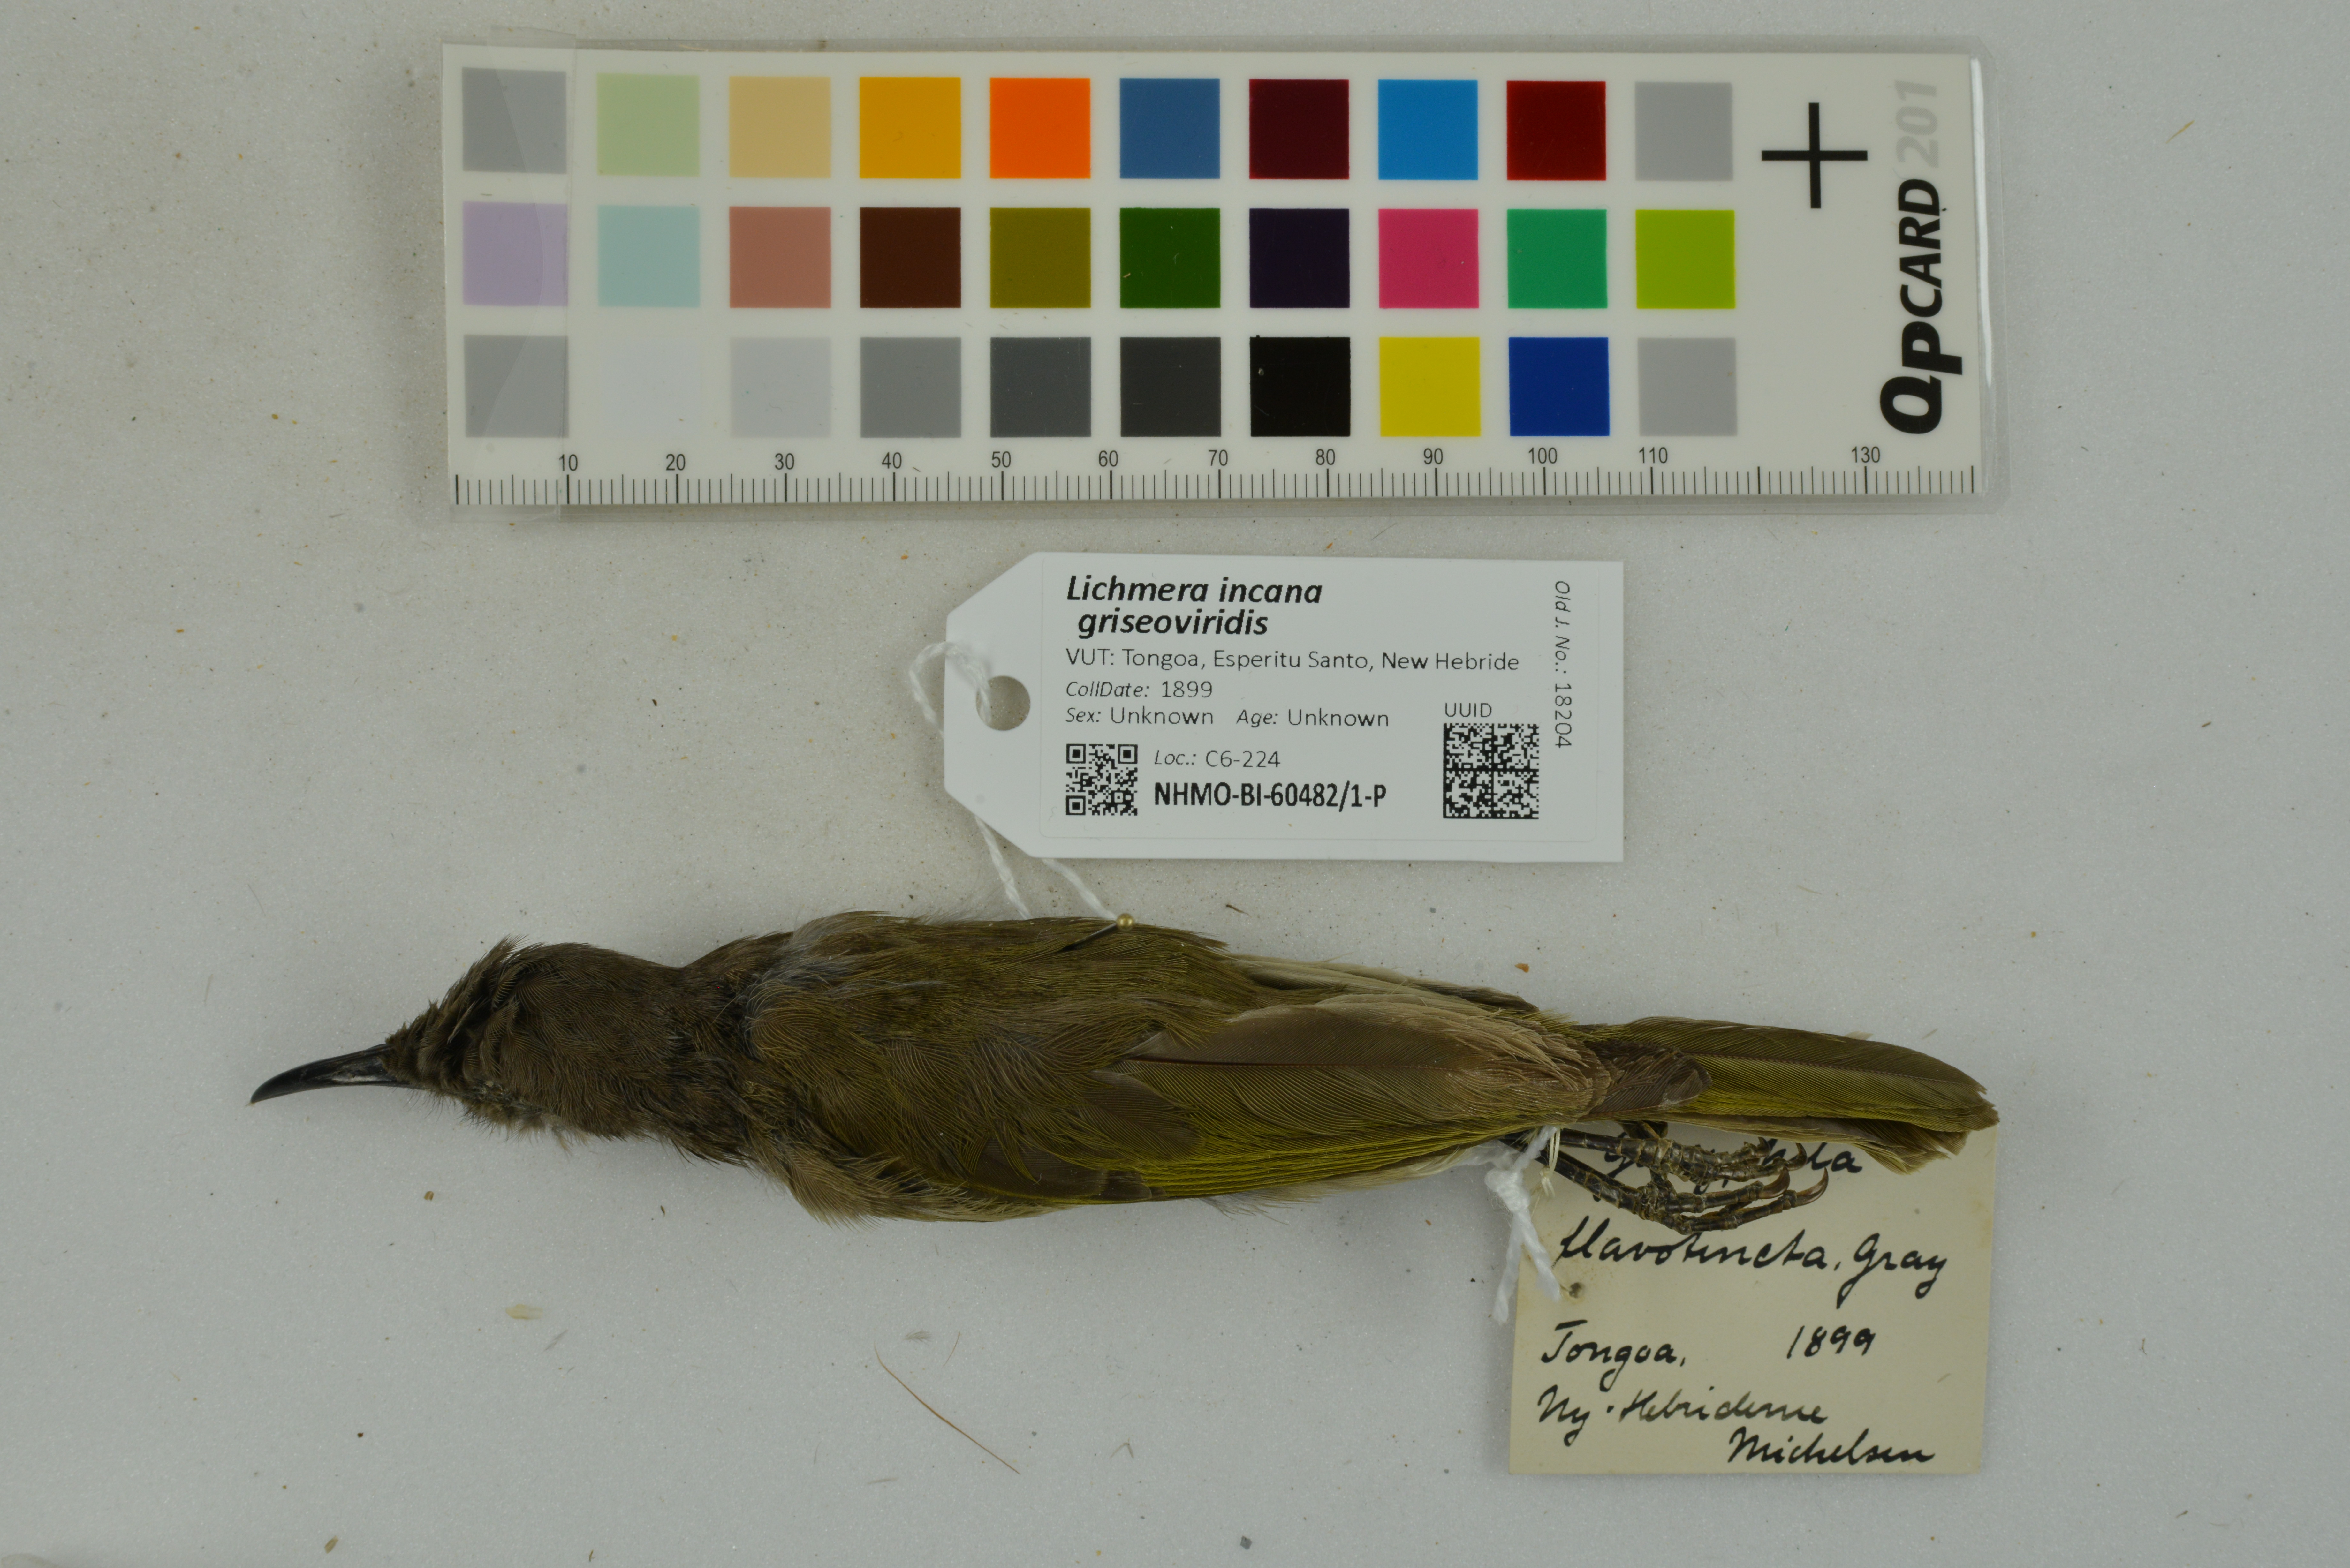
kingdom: Animalia
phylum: Chordata
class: Aves
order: Passeriformes
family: Meliphagidae
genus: Lichmera
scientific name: Lichmera incana
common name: Grey-eared honeyeater
